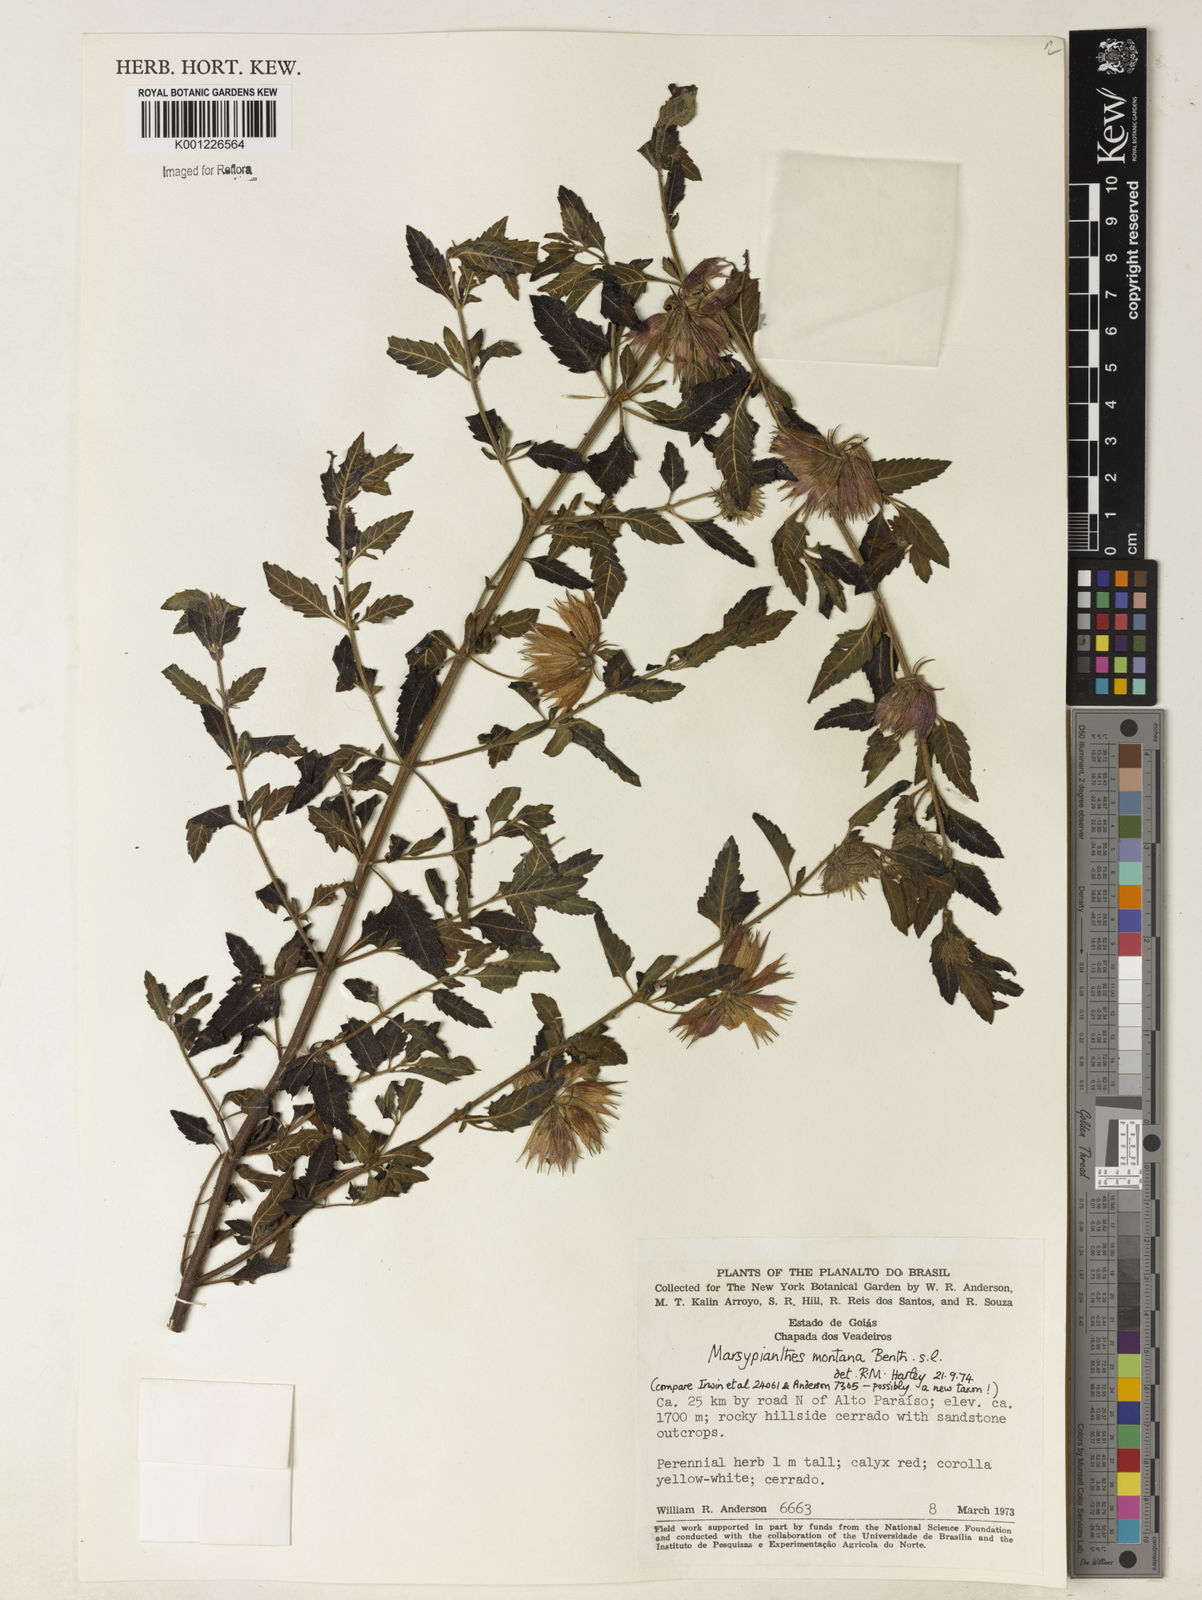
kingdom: Plantae
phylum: Tracheophyta
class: Magnoliopsida
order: Lamiales
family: Lamiaceae
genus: Marsypianthes
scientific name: Marsypianthes burchellii
